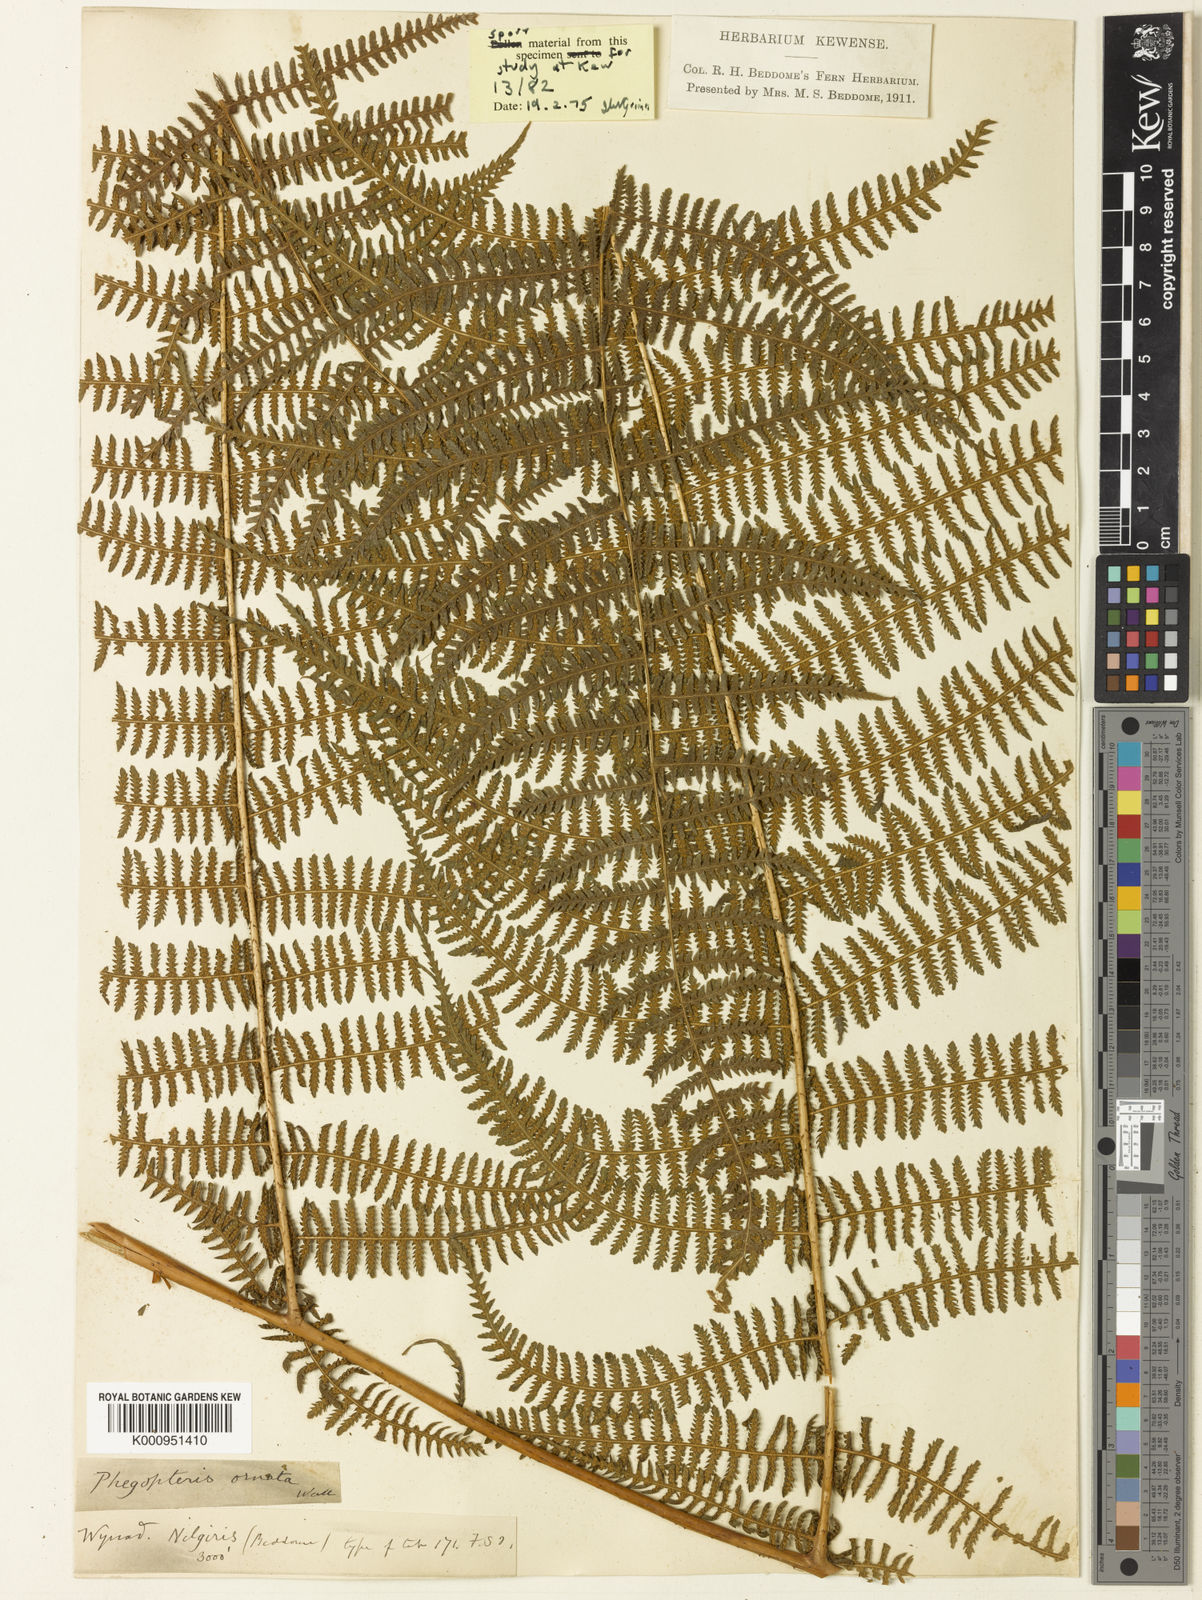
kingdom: Plantae
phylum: Tracheophyta
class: Polypodiopsida
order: Polypodiales
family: Thelypteridaceae
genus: Macrothelypteris
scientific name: Macrothelypteris ornata
